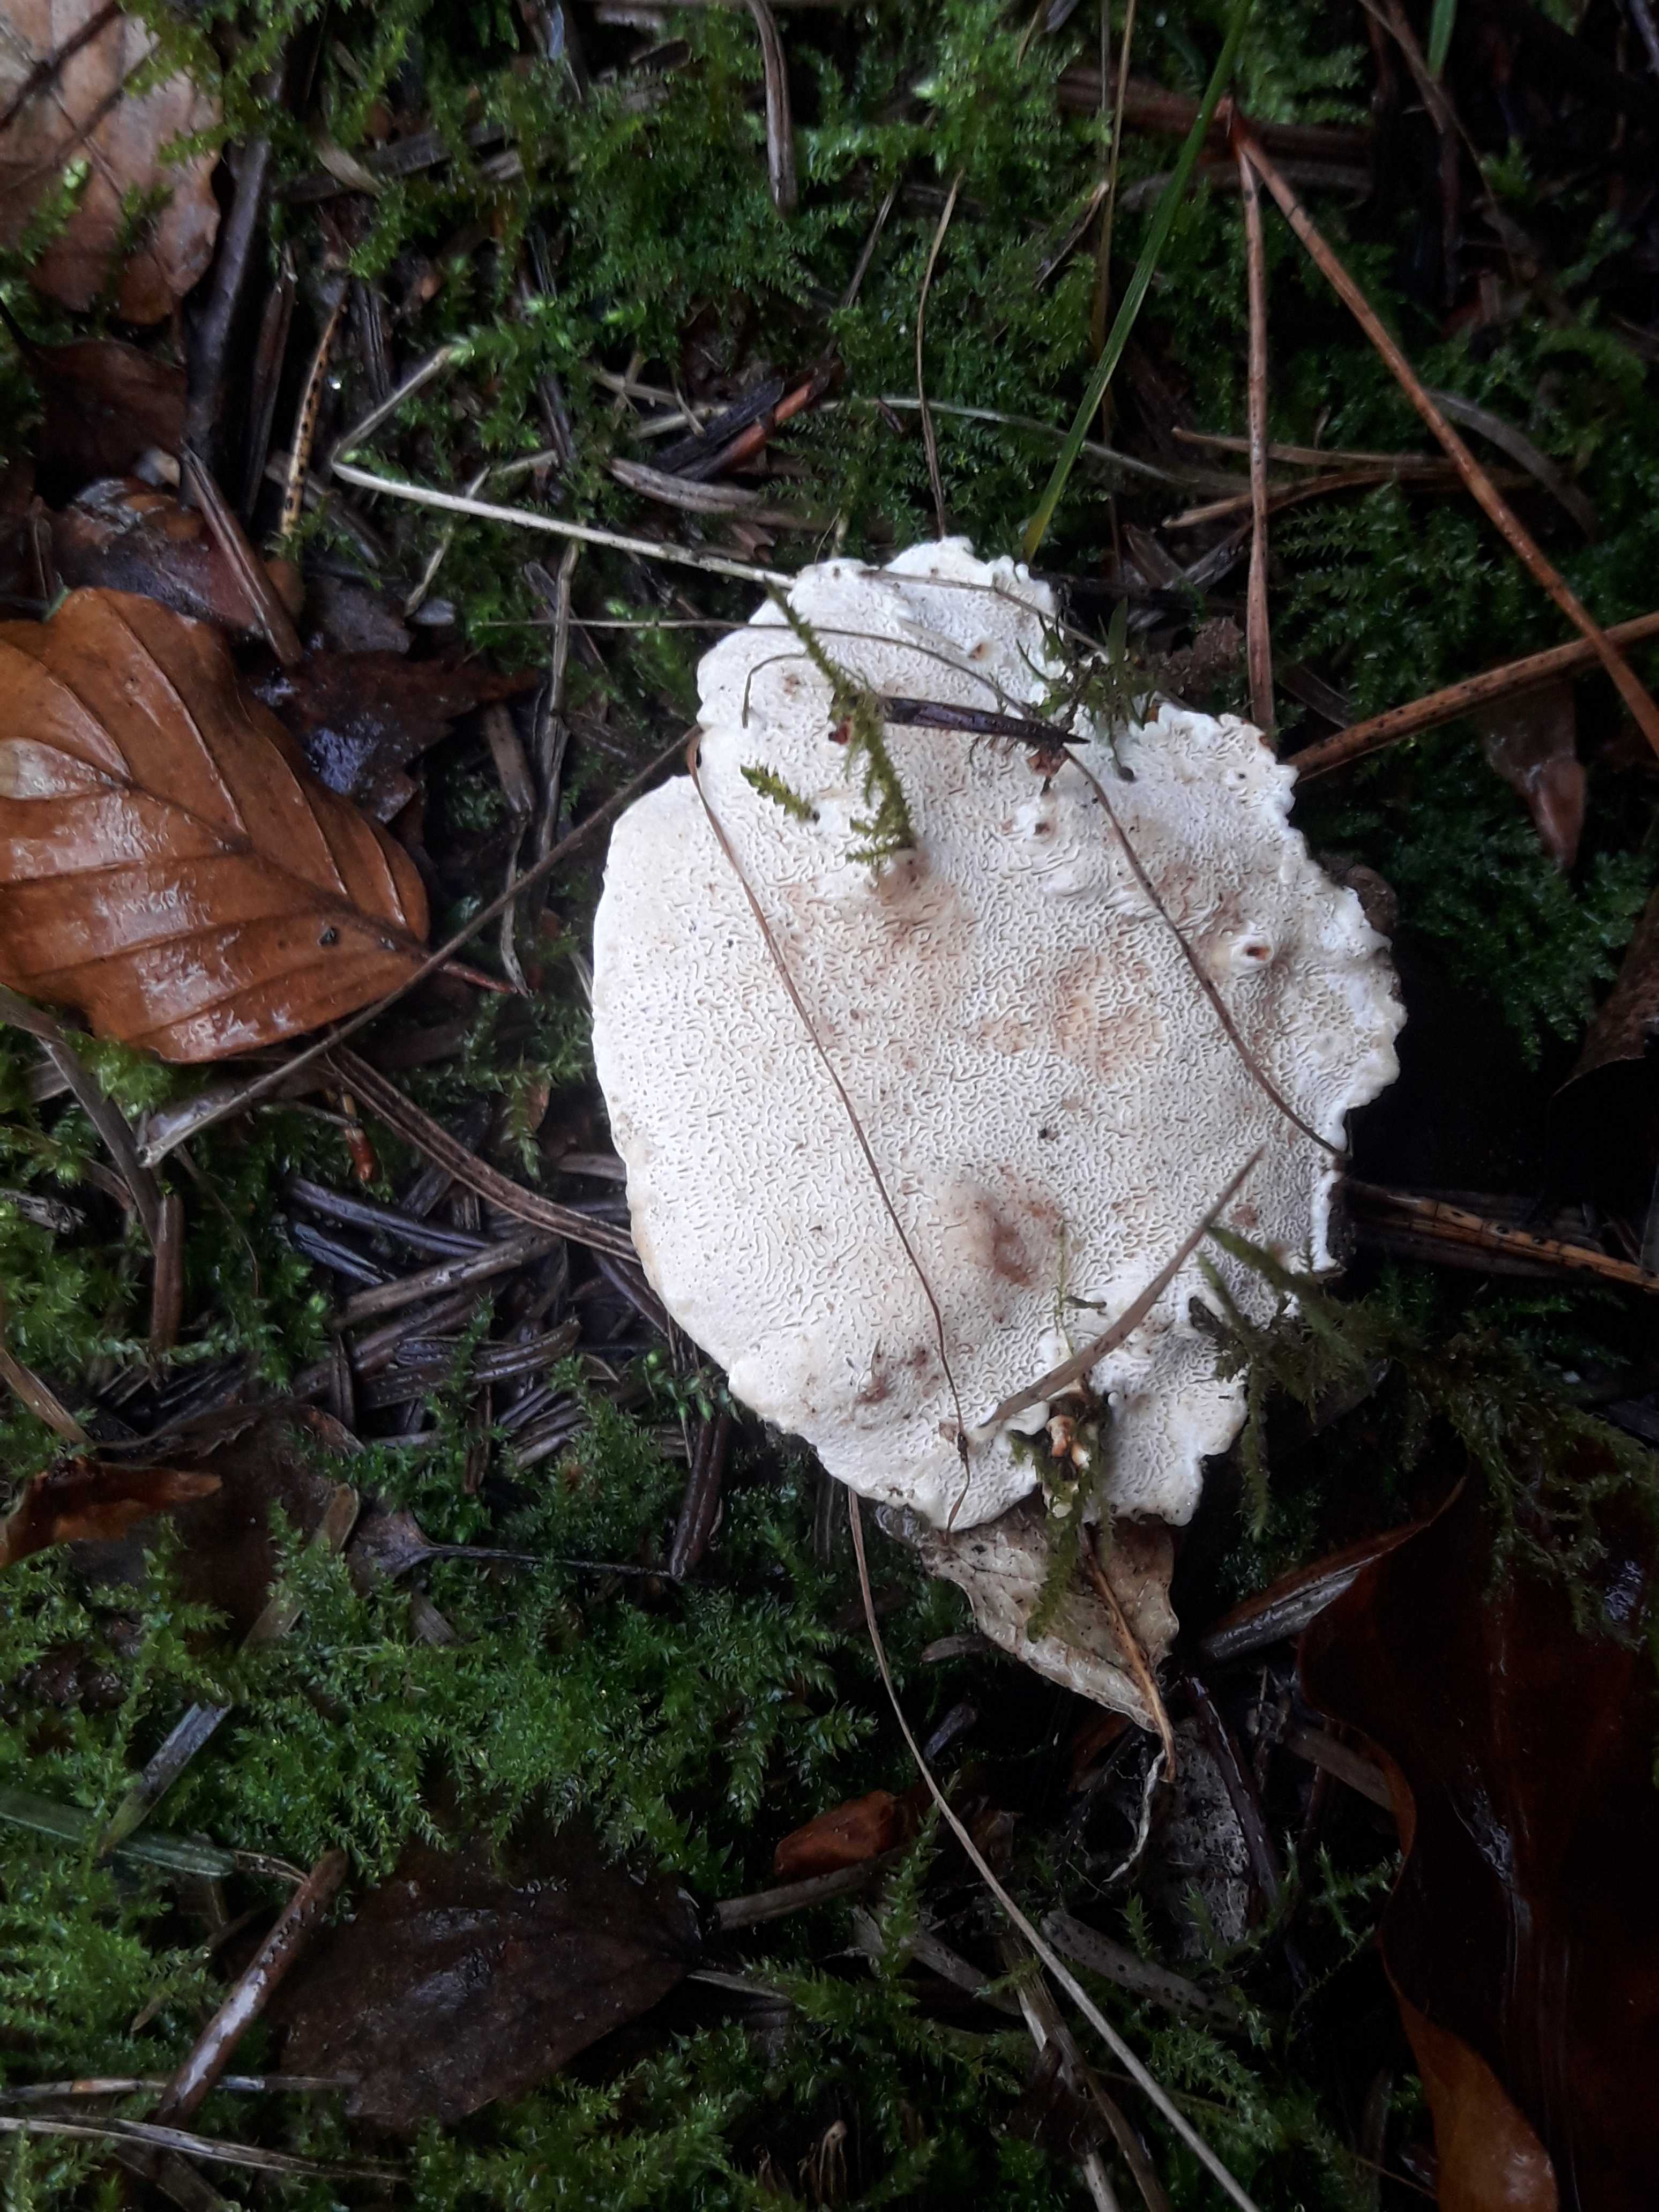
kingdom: Fungi
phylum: Basidiomycota
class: Agaricomycetes
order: Russulales
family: Bondarzewiaceae
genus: Heterobasidion
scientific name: Heterobasidion annosum
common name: almindelig rodfordærver
